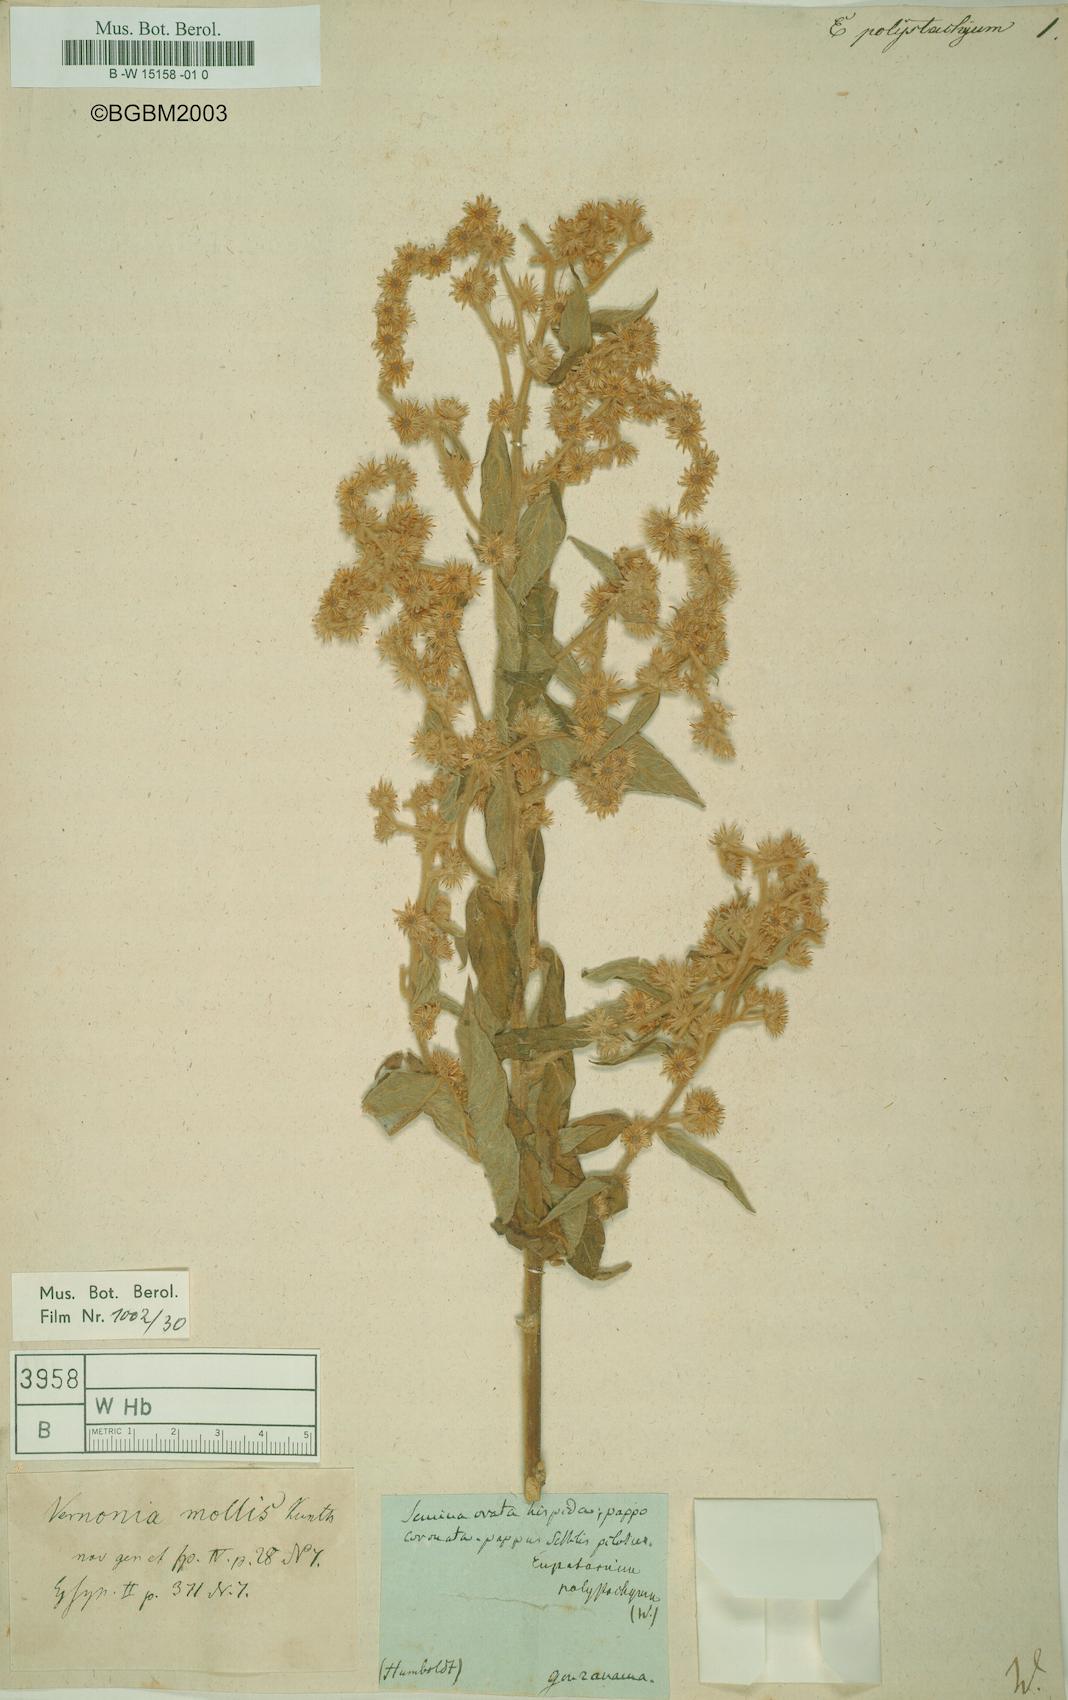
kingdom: Plantae
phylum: Tracheophyta
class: Magnoliopsida
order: Asterales
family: Asteraceae
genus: Lepidaploa
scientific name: Lepidaploa canescens
